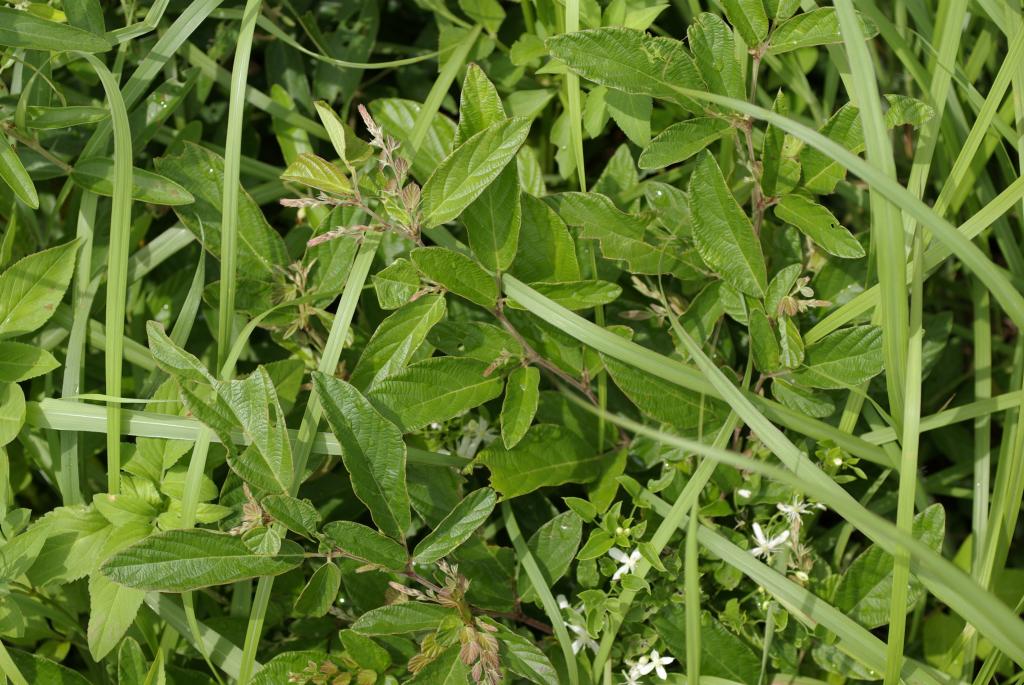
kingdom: Plantae
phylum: Tracheophyta
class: Magnoliopsida
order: Fabales
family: Fabaceae
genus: Phyllodium
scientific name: Phyllodium pulchellum
